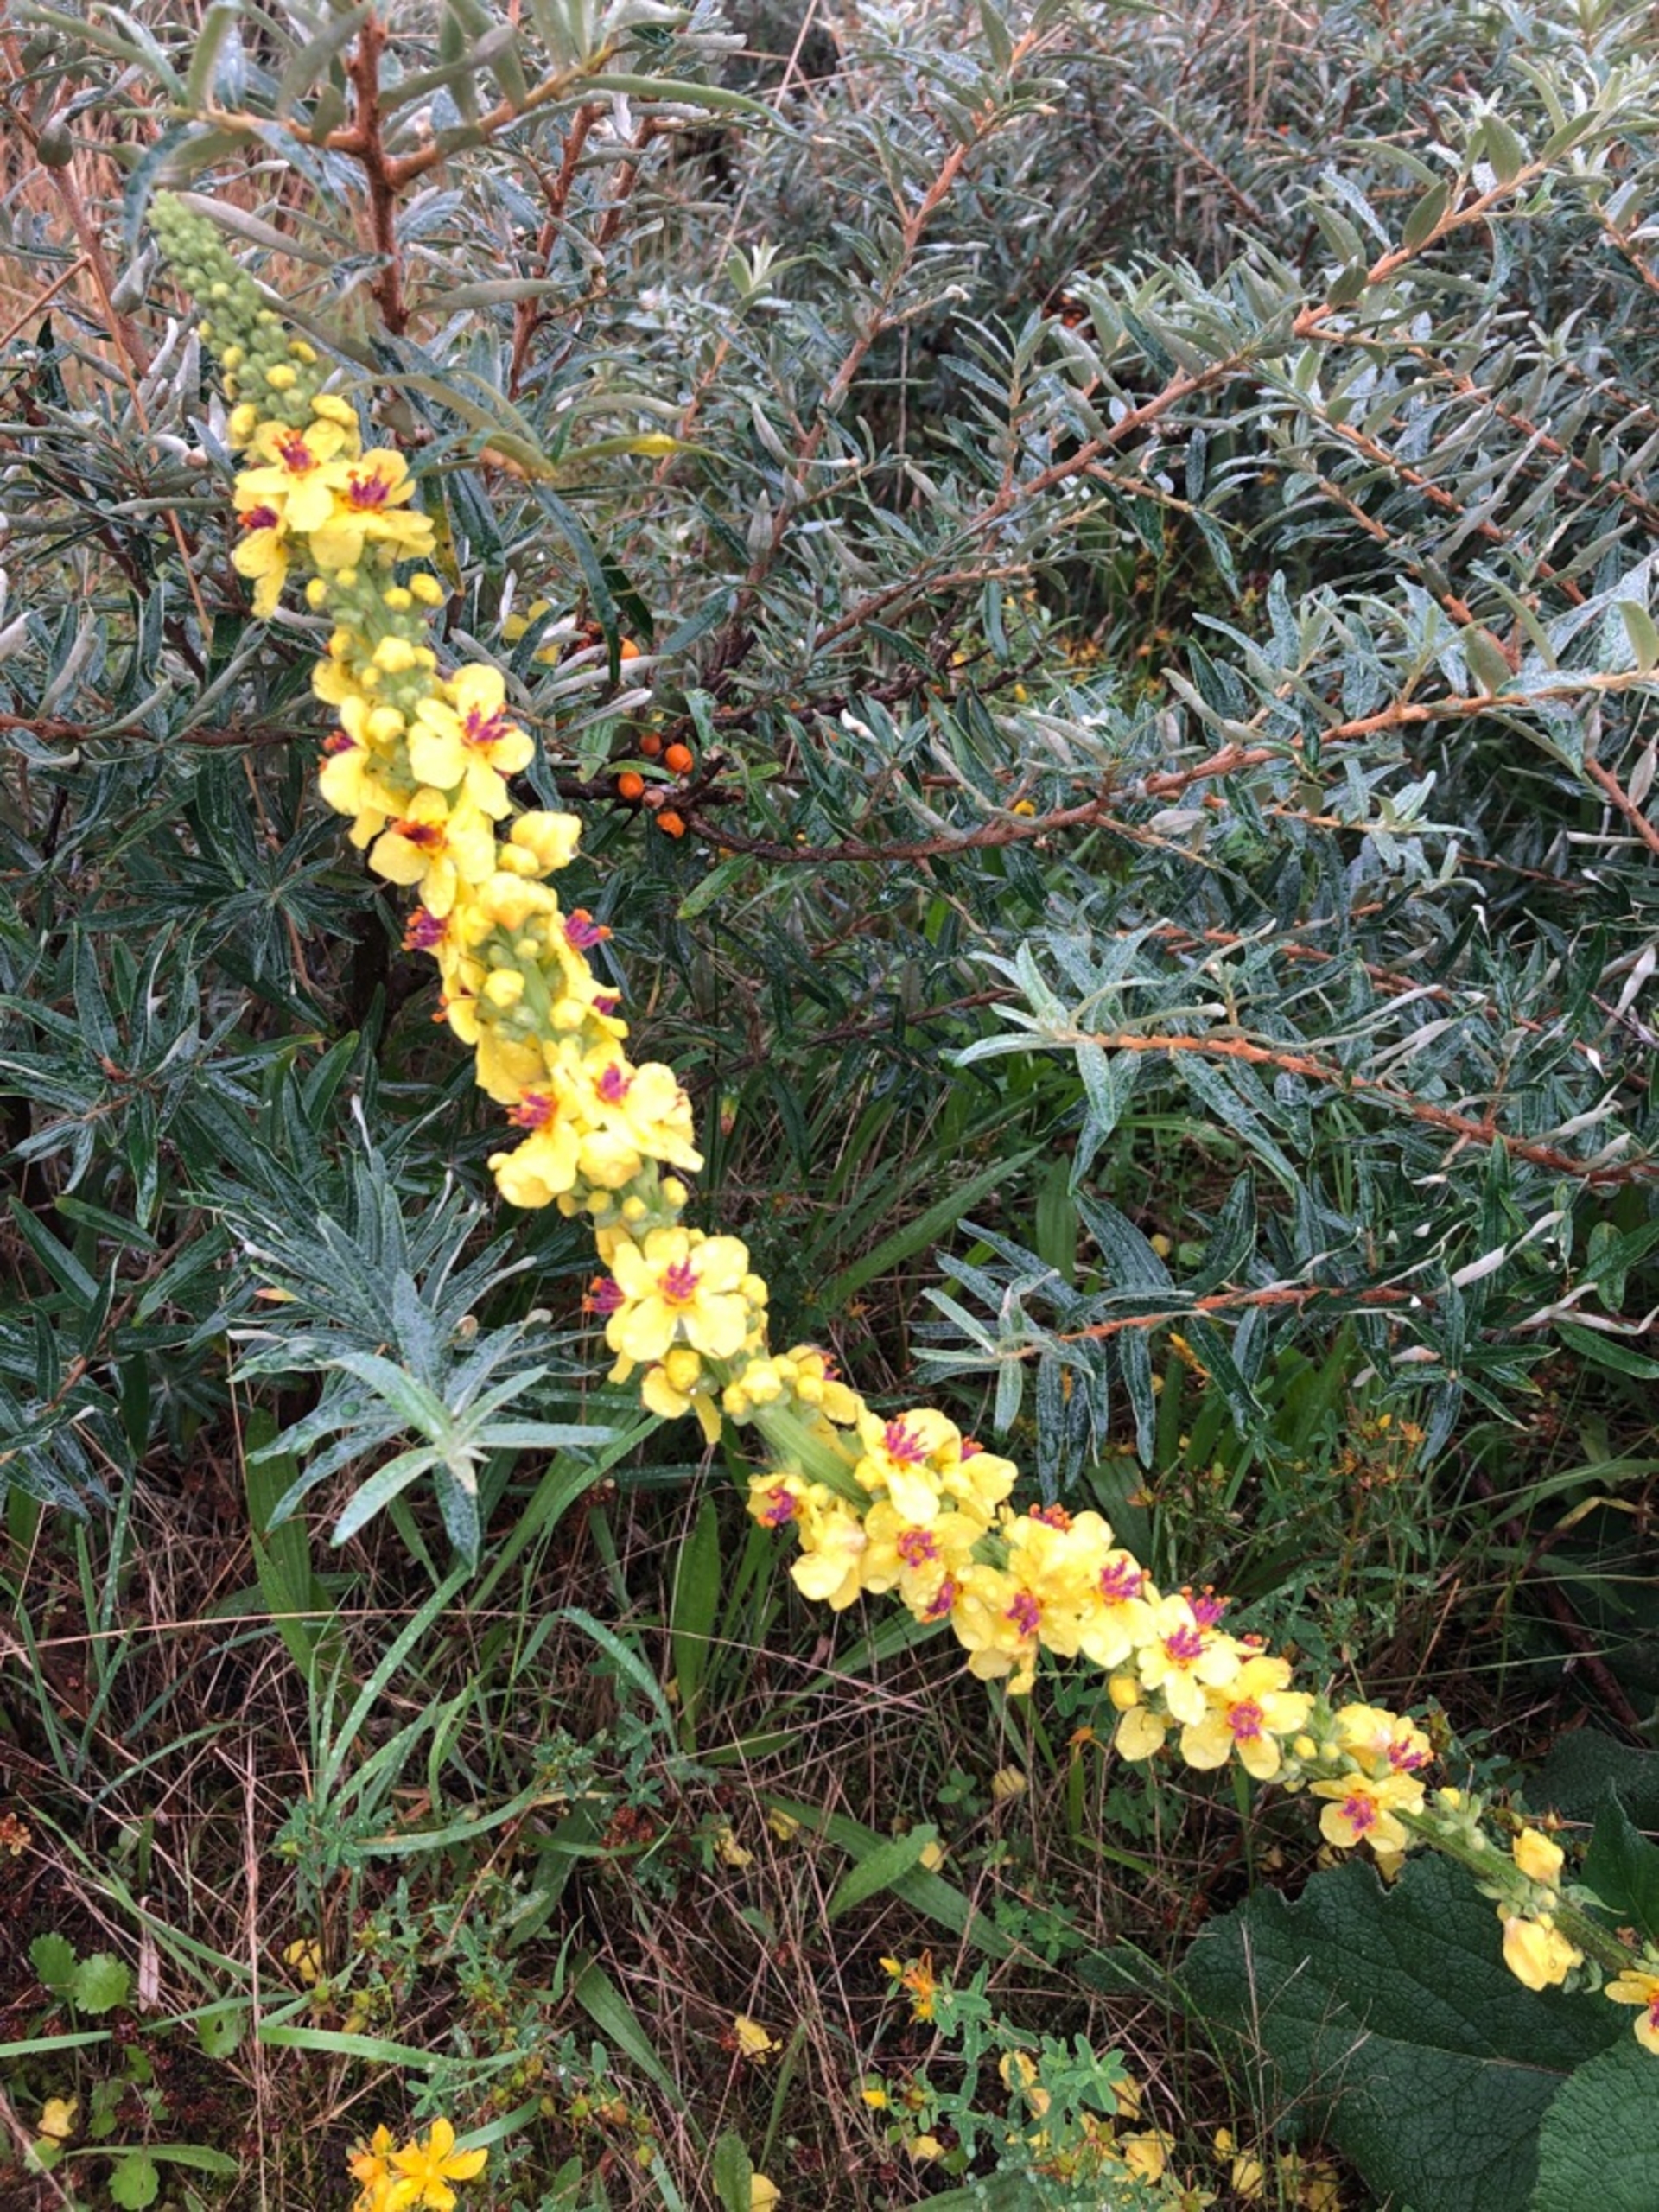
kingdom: Plantae
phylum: Tracheophyta
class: Magnoliopsida
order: Lamiales
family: Scrophulariaceae
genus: Verbascum
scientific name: Verbascum nigrum
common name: Mørk kongelys
